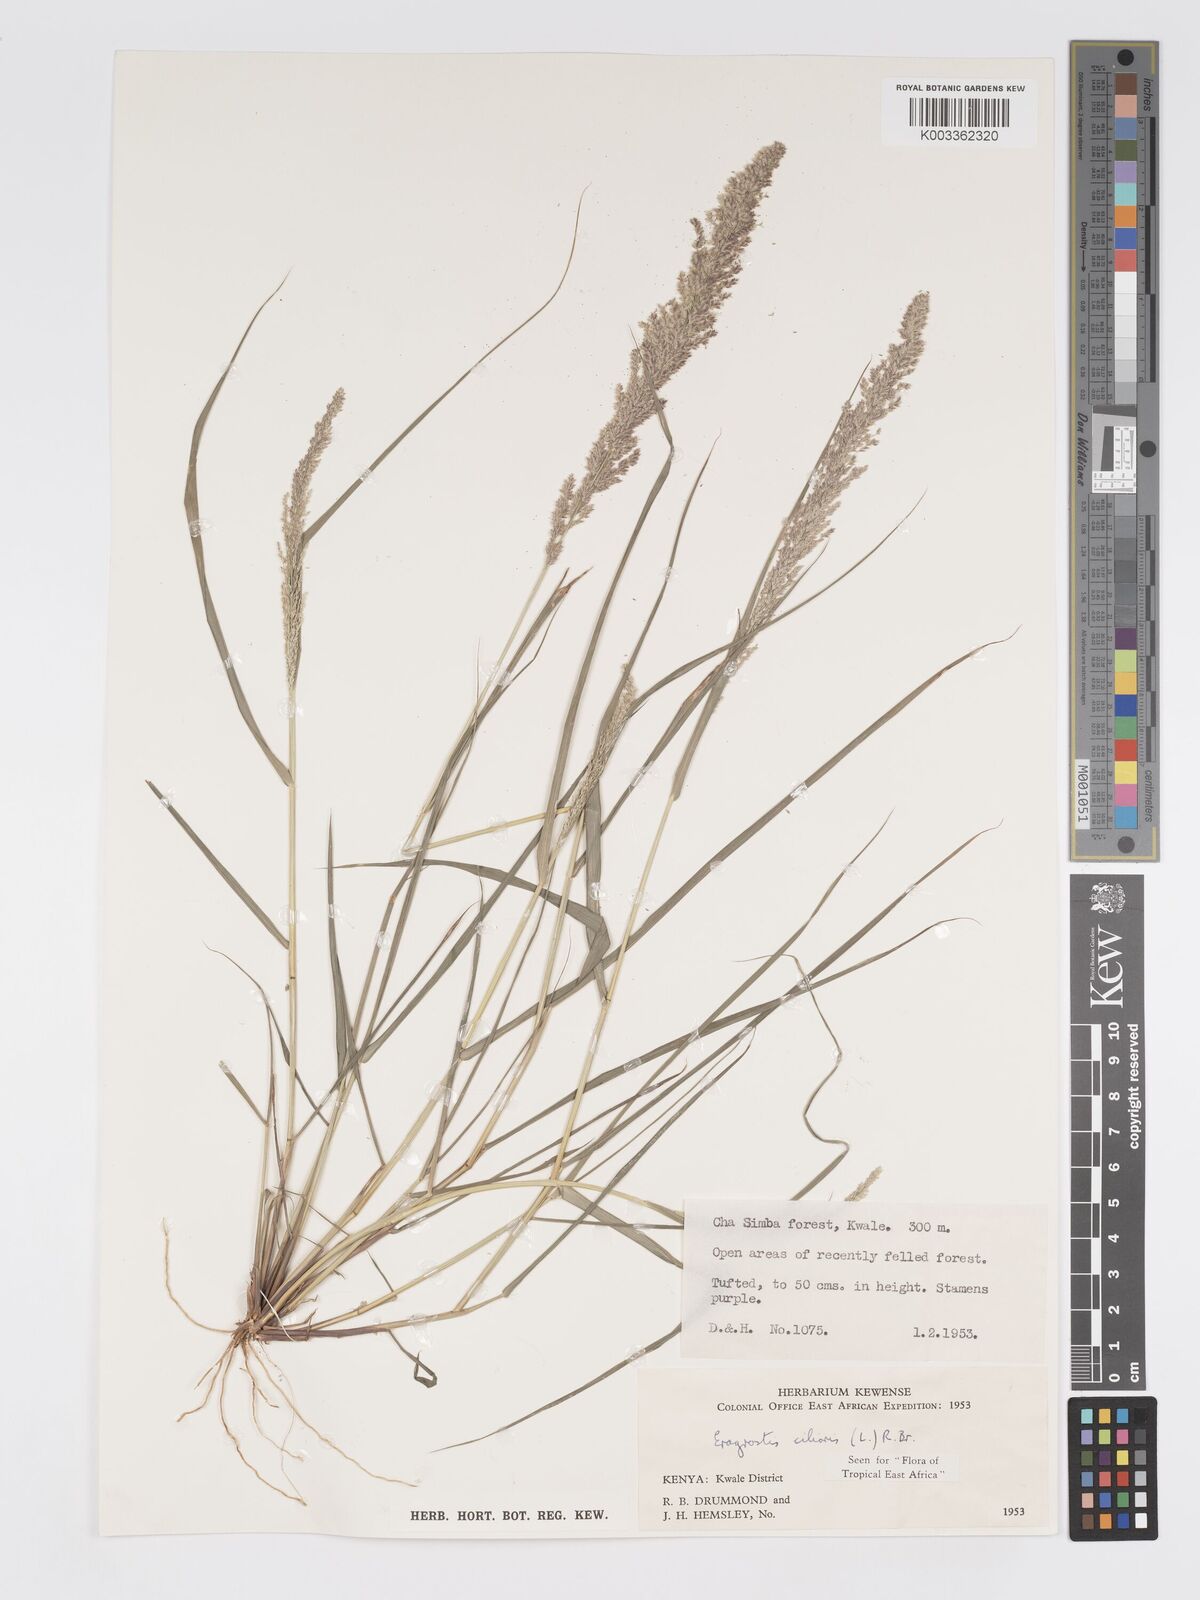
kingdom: Plantae
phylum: Tracheophyta
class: Liliopsida
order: Poales
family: Poaceae
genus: Eragrostis
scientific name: Eragrostis ciliaris
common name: Gophertail lovegrass
